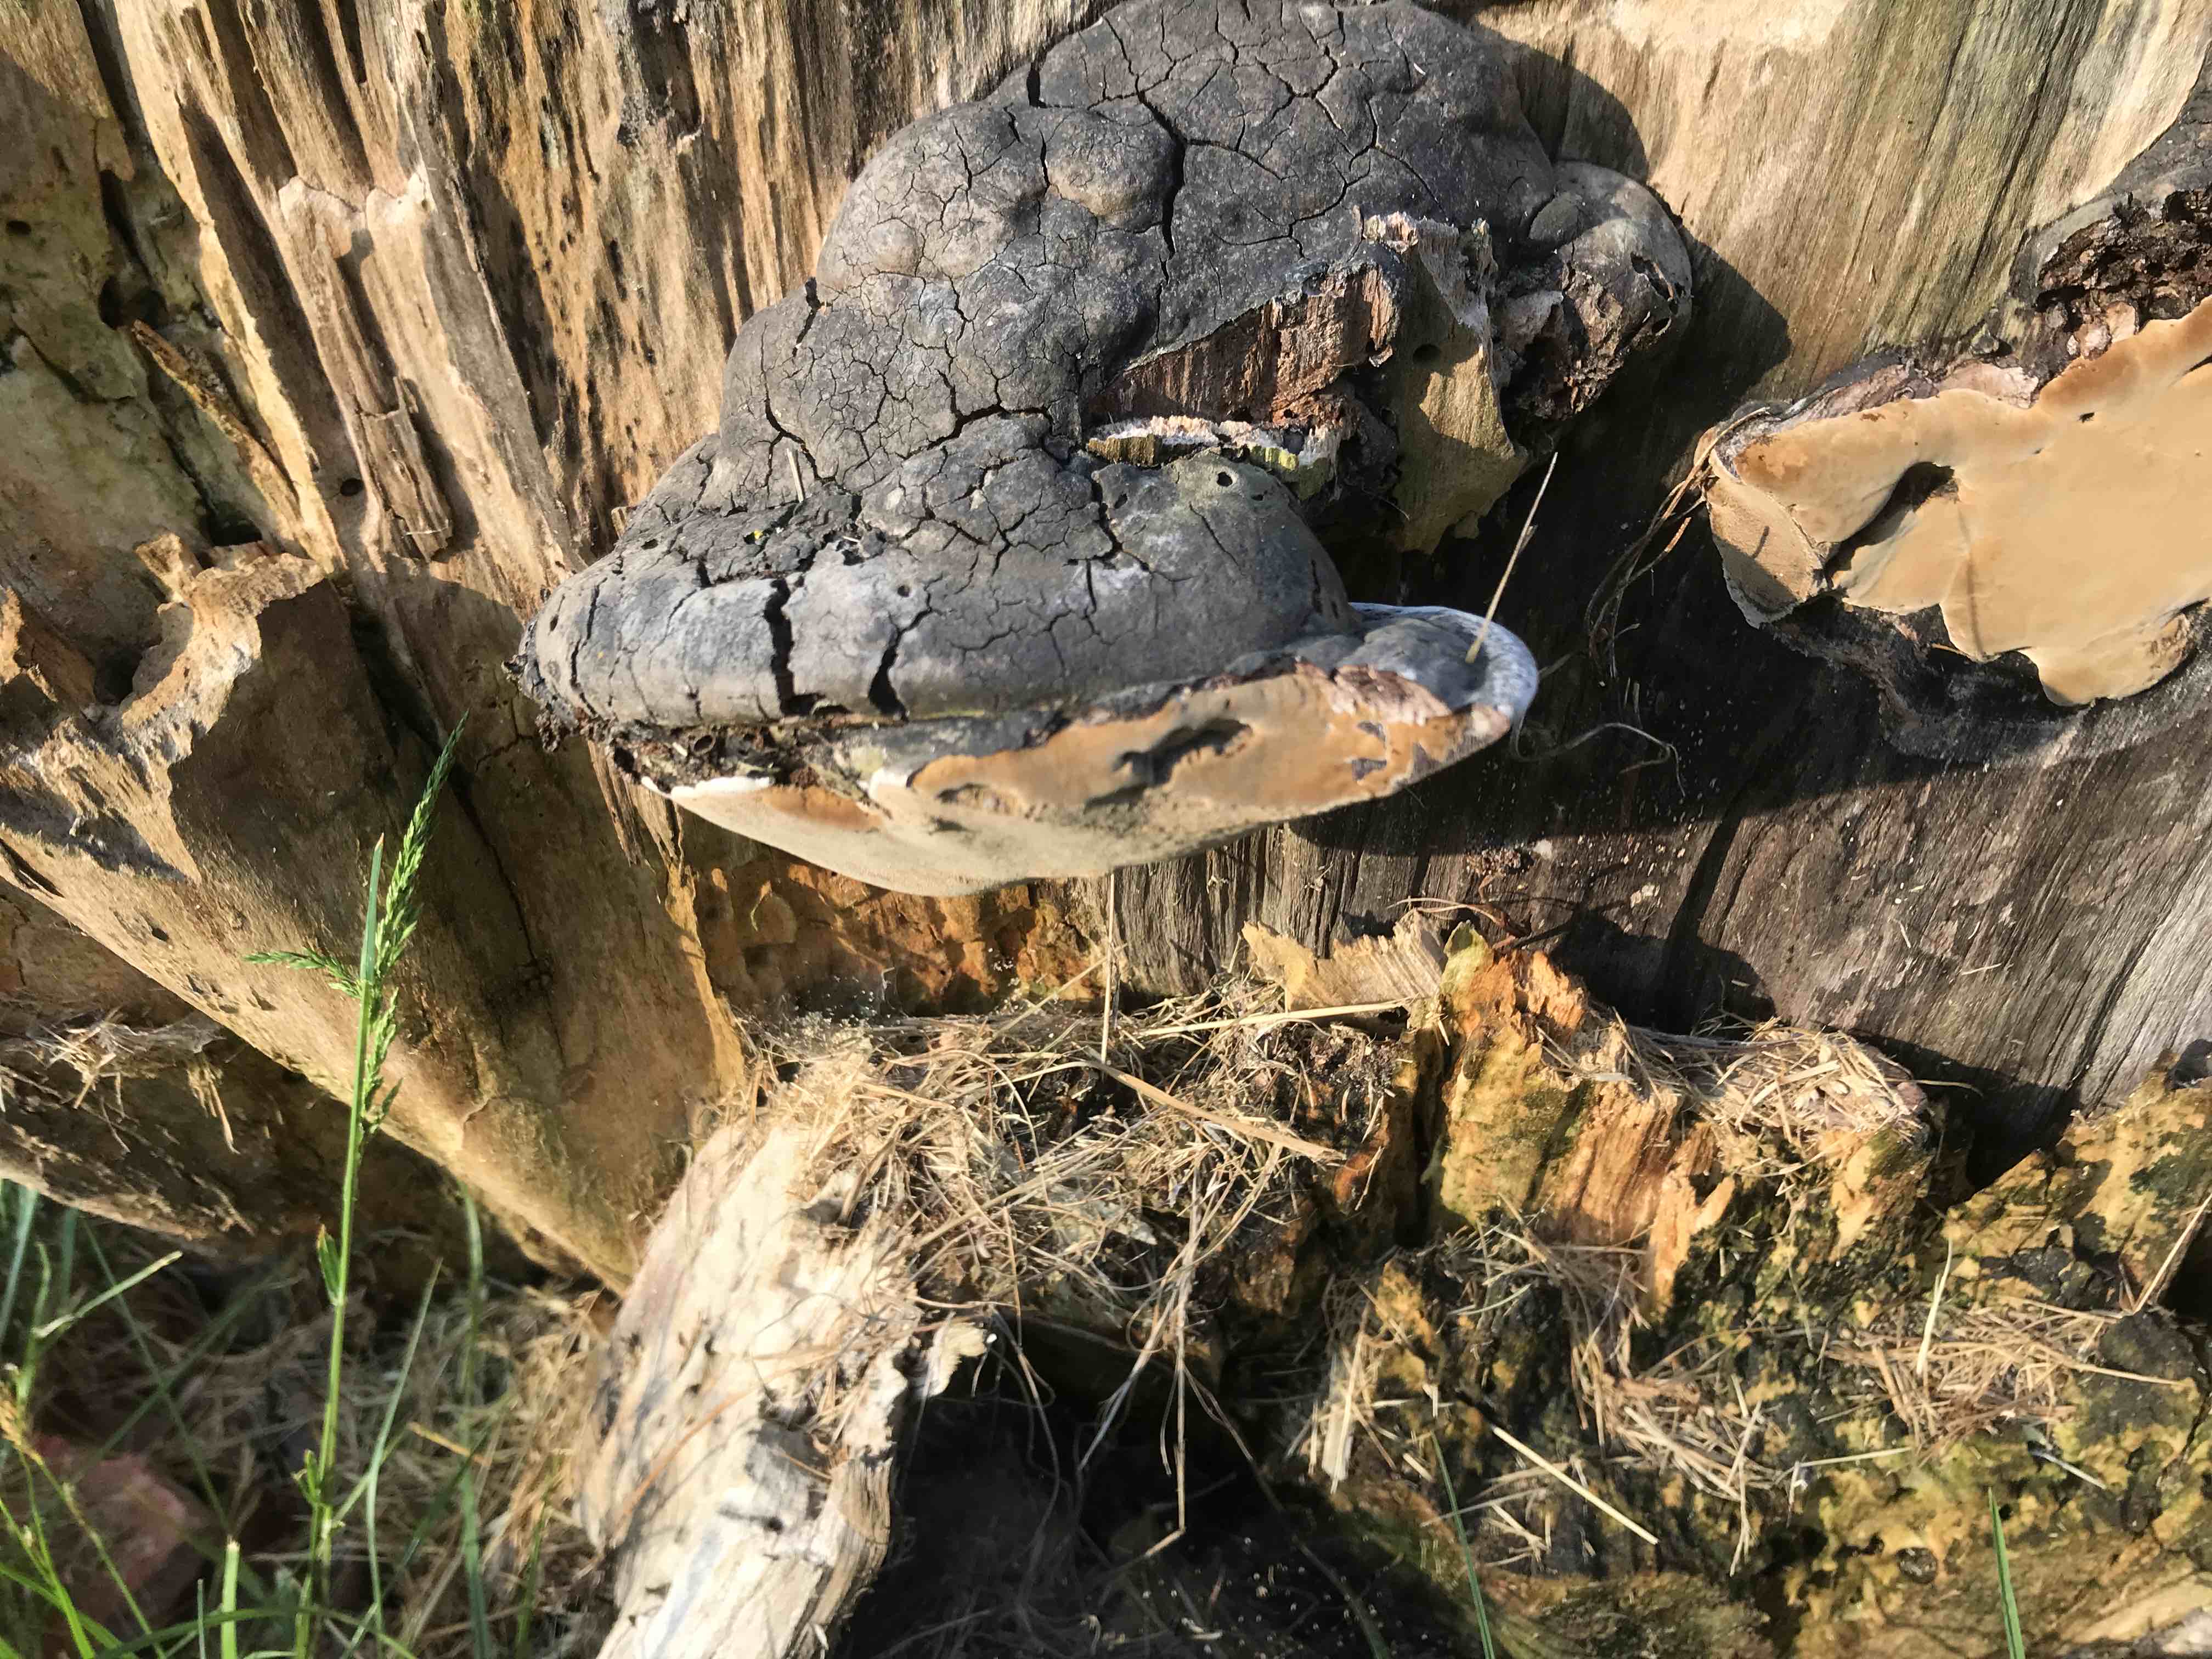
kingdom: Fungi
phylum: Basidiomycota
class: Agaricomycetes
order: Hymenochaetales
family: Hymenochaetaceae
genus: Phellinus
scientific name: Phellinus
